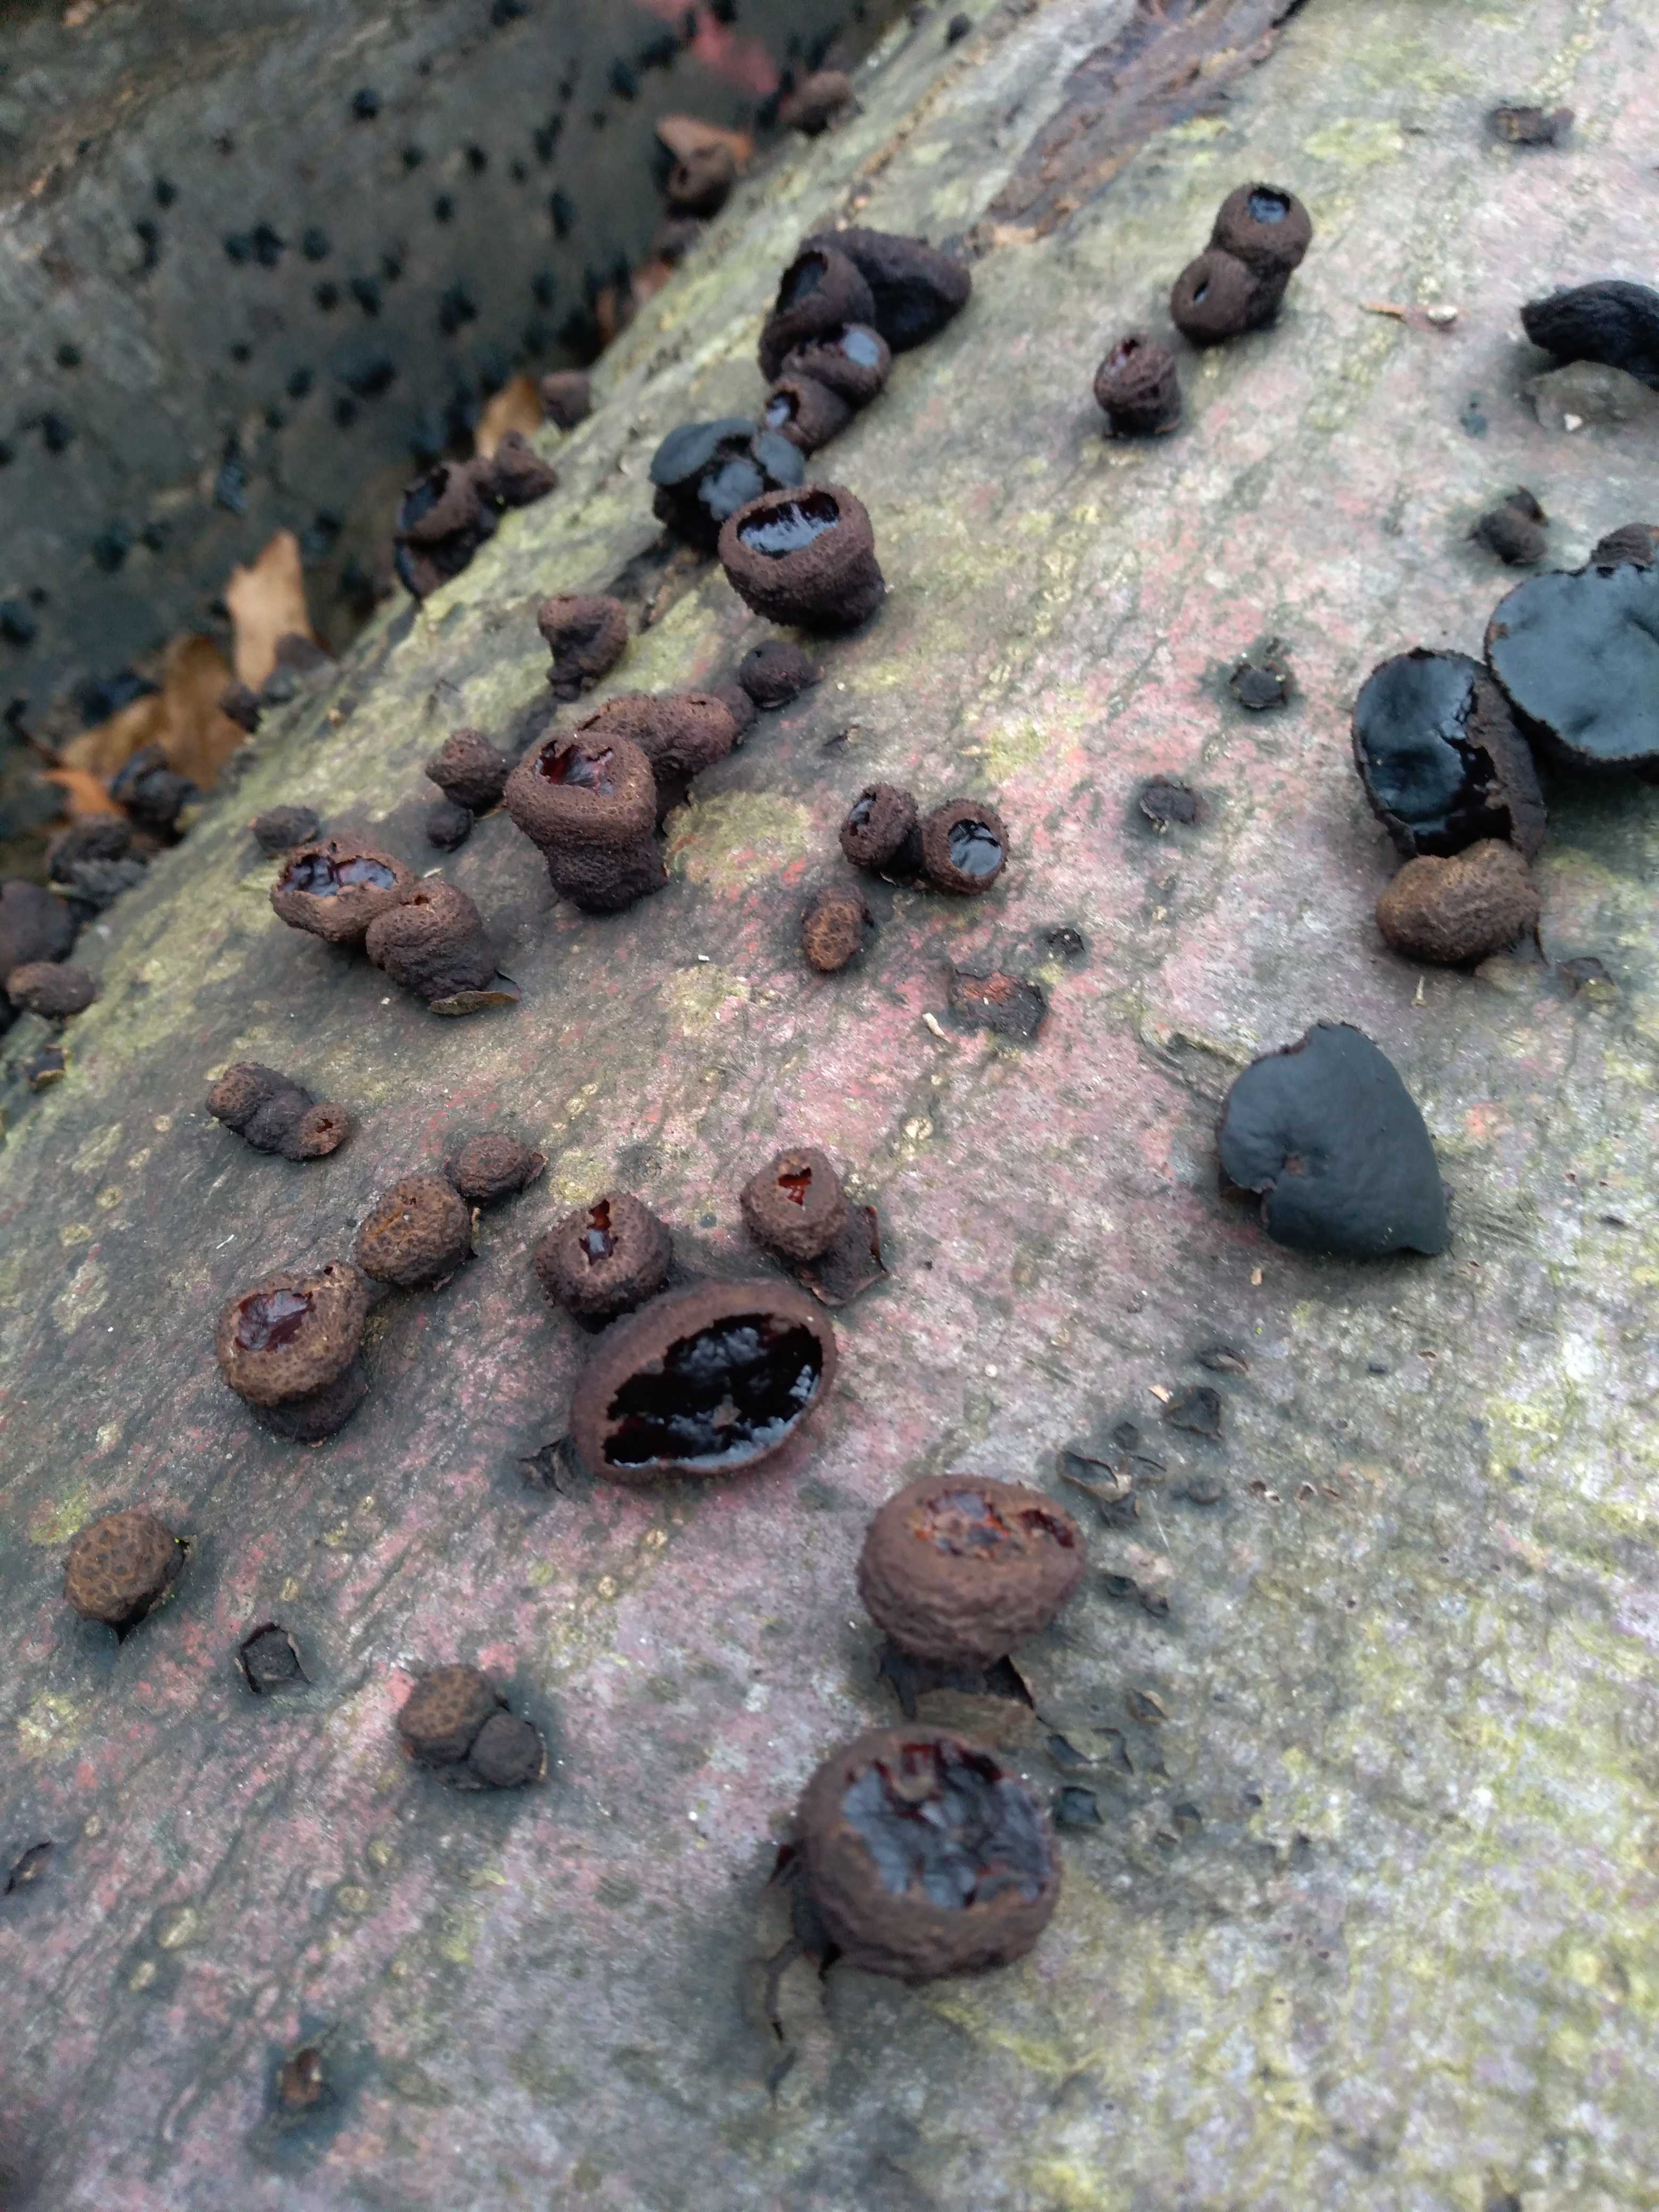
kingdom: Fungi
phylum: Ascomycota
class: Leotiomycetes
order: Phacidiales
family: Phacidiaceae
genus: Bulgaria
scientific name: Bulgaria inquinans
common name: afsmittende topsvamp
